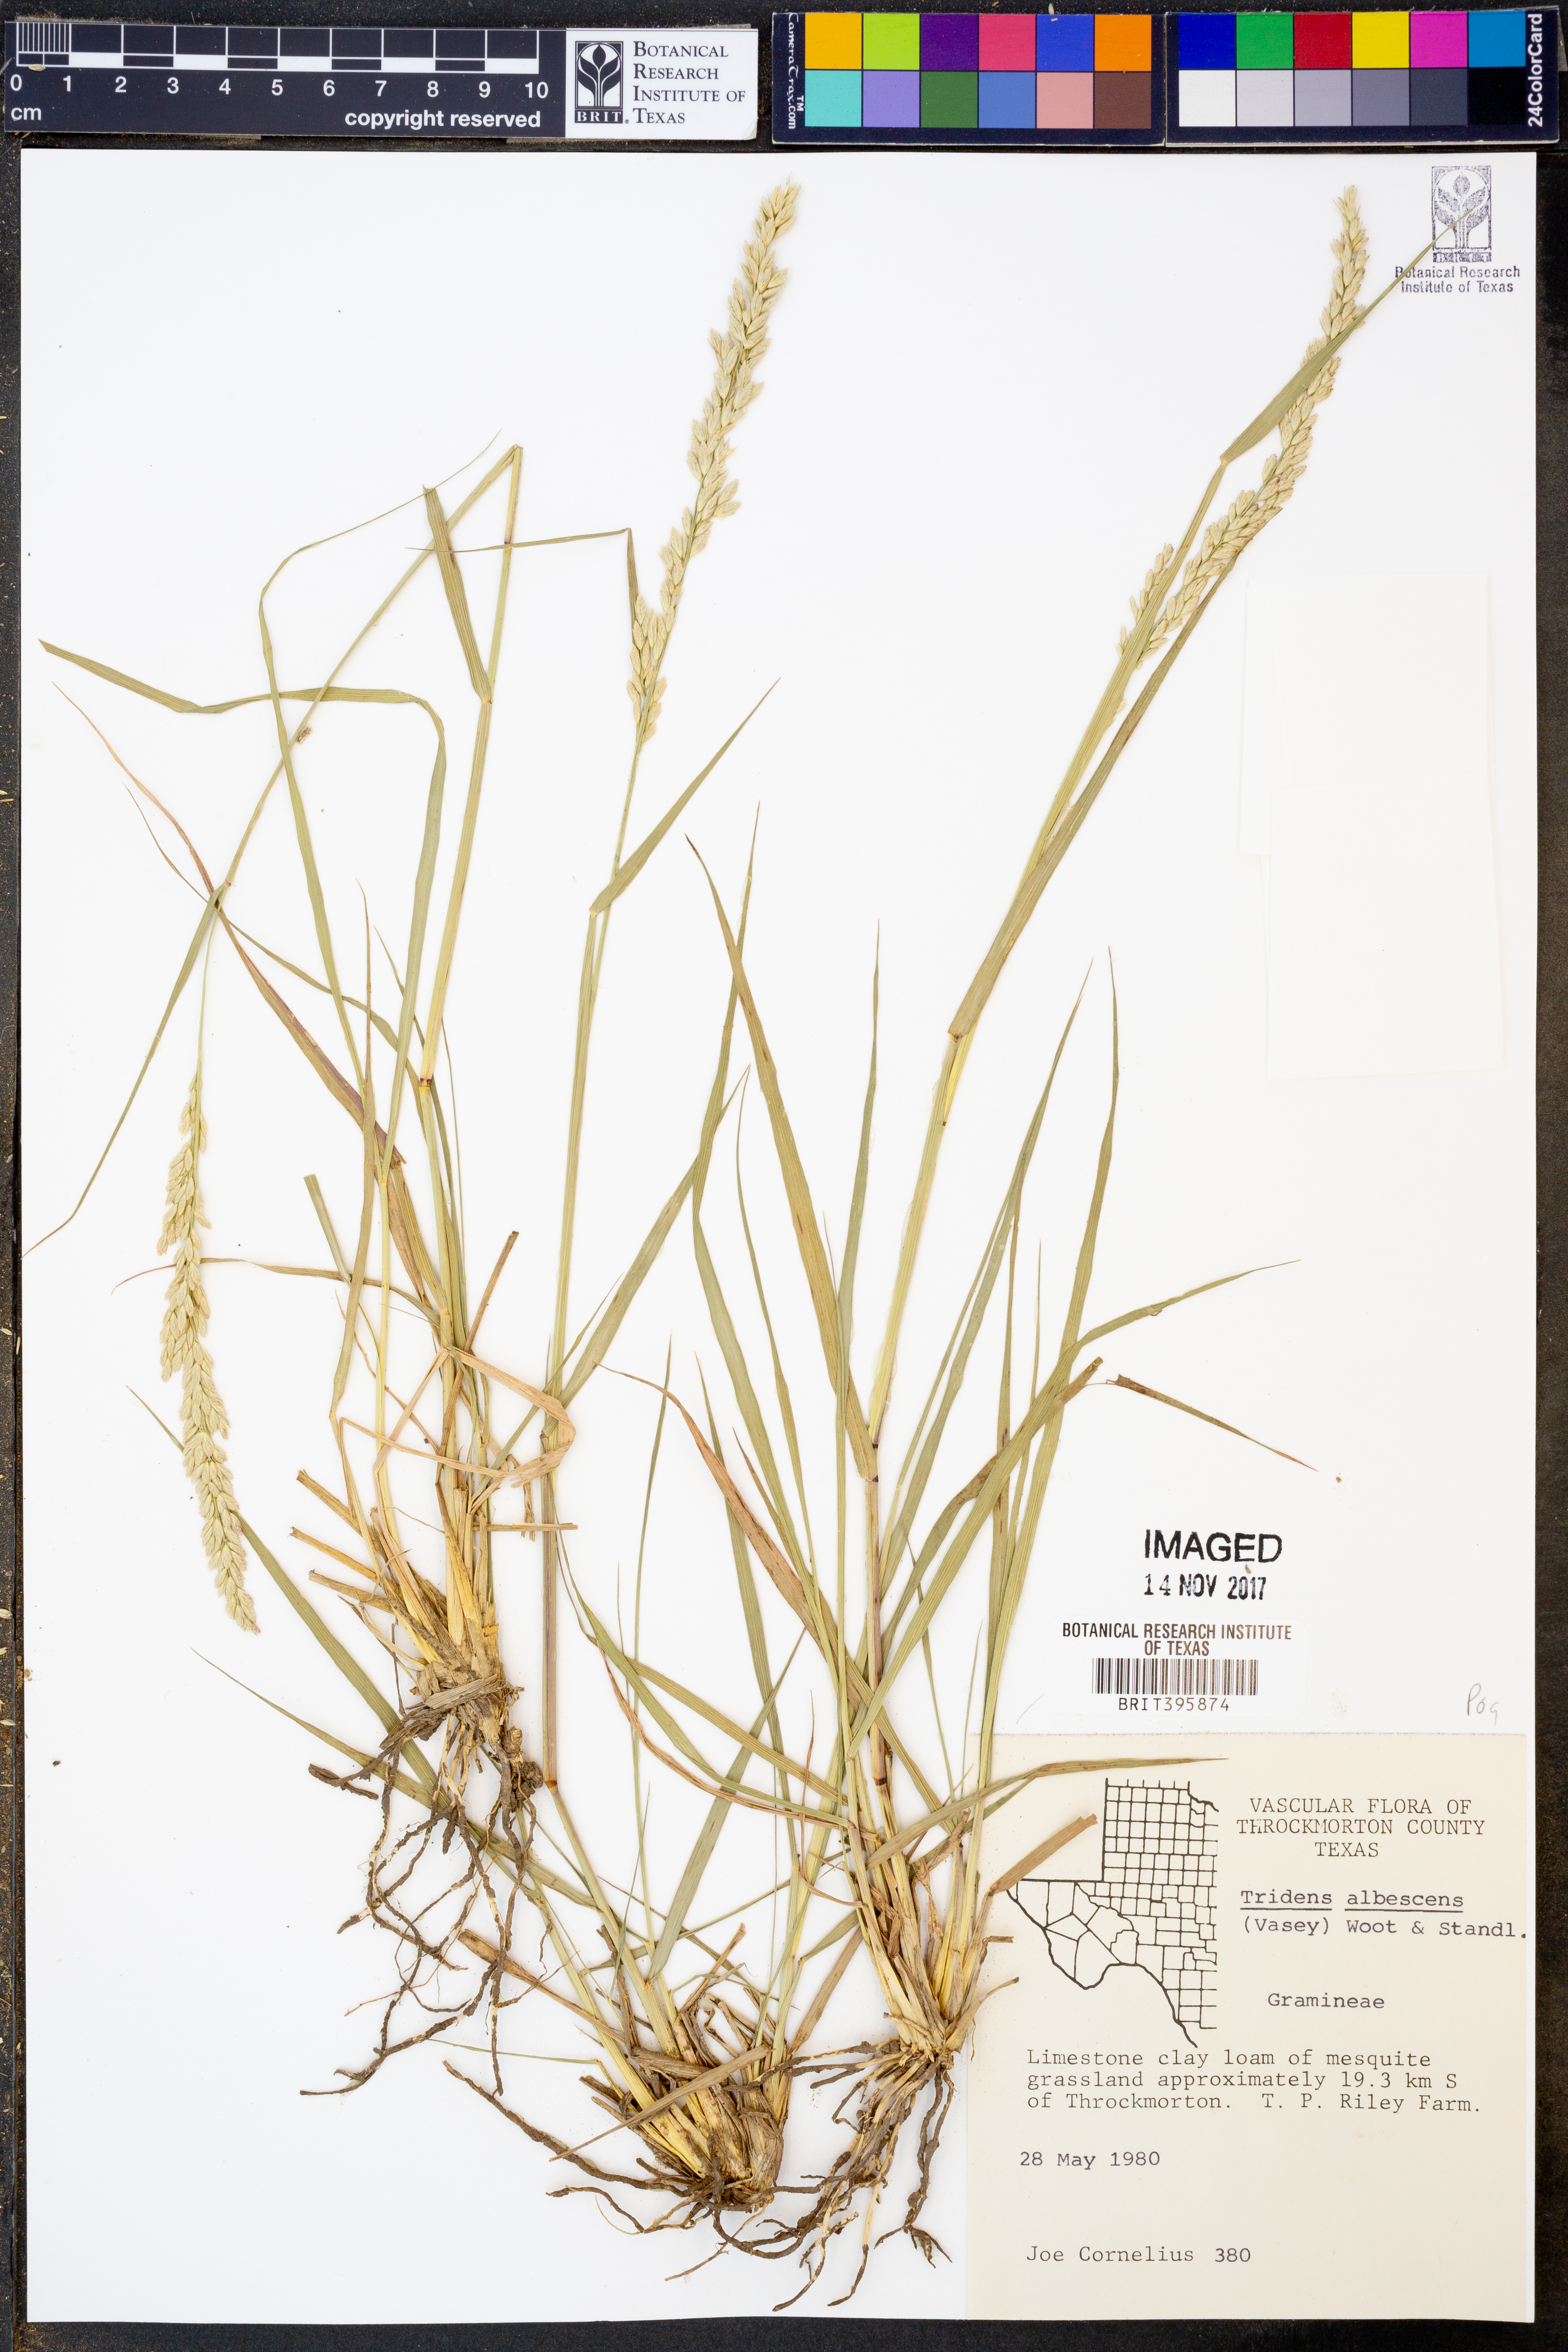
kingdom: Plantae
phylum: Tracheophyta
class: Liliopsida
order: Poales
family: Poaceae
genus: Tridens
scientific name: Tridens albescens
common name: White tridens
